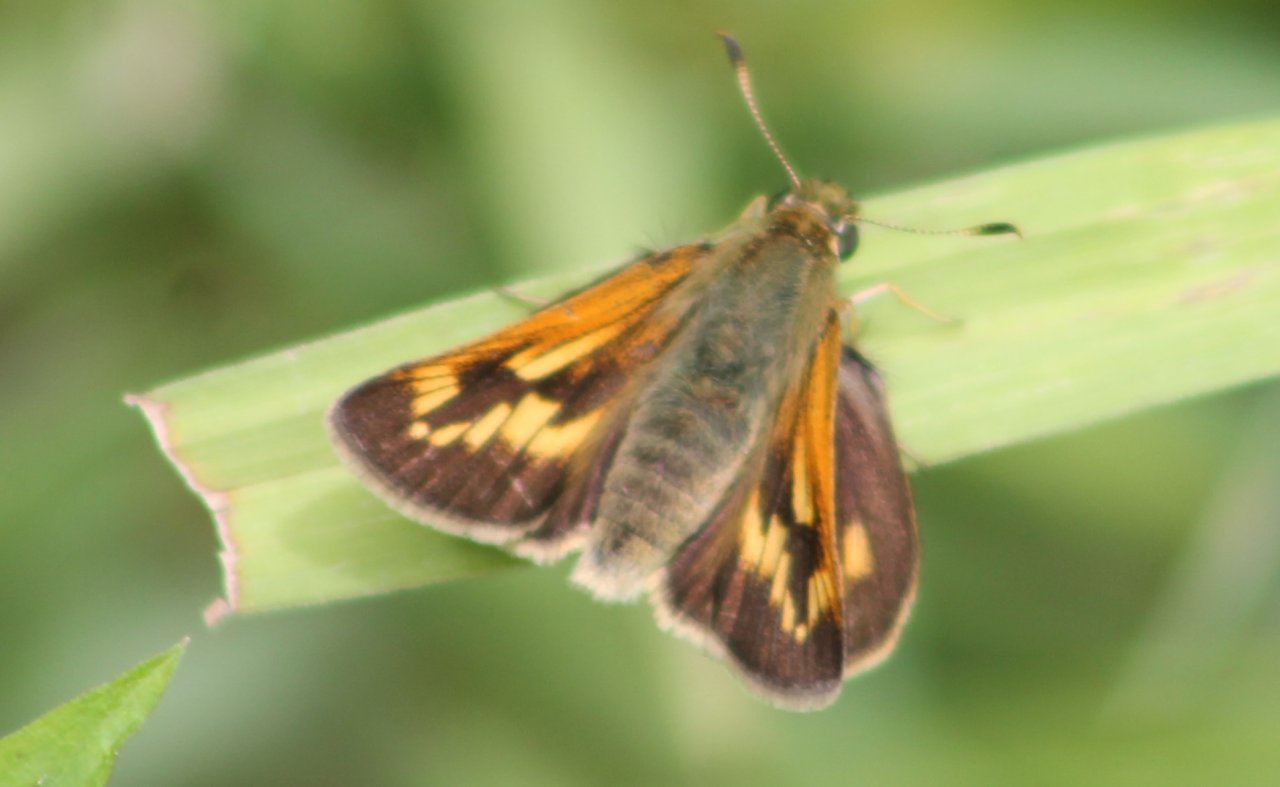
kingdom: Animalia
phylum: Arthropoda
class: Insecta
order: Lepidoptera
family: Hesperiidae
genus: Polites
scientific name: Polites
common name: Long Dash Skipper
